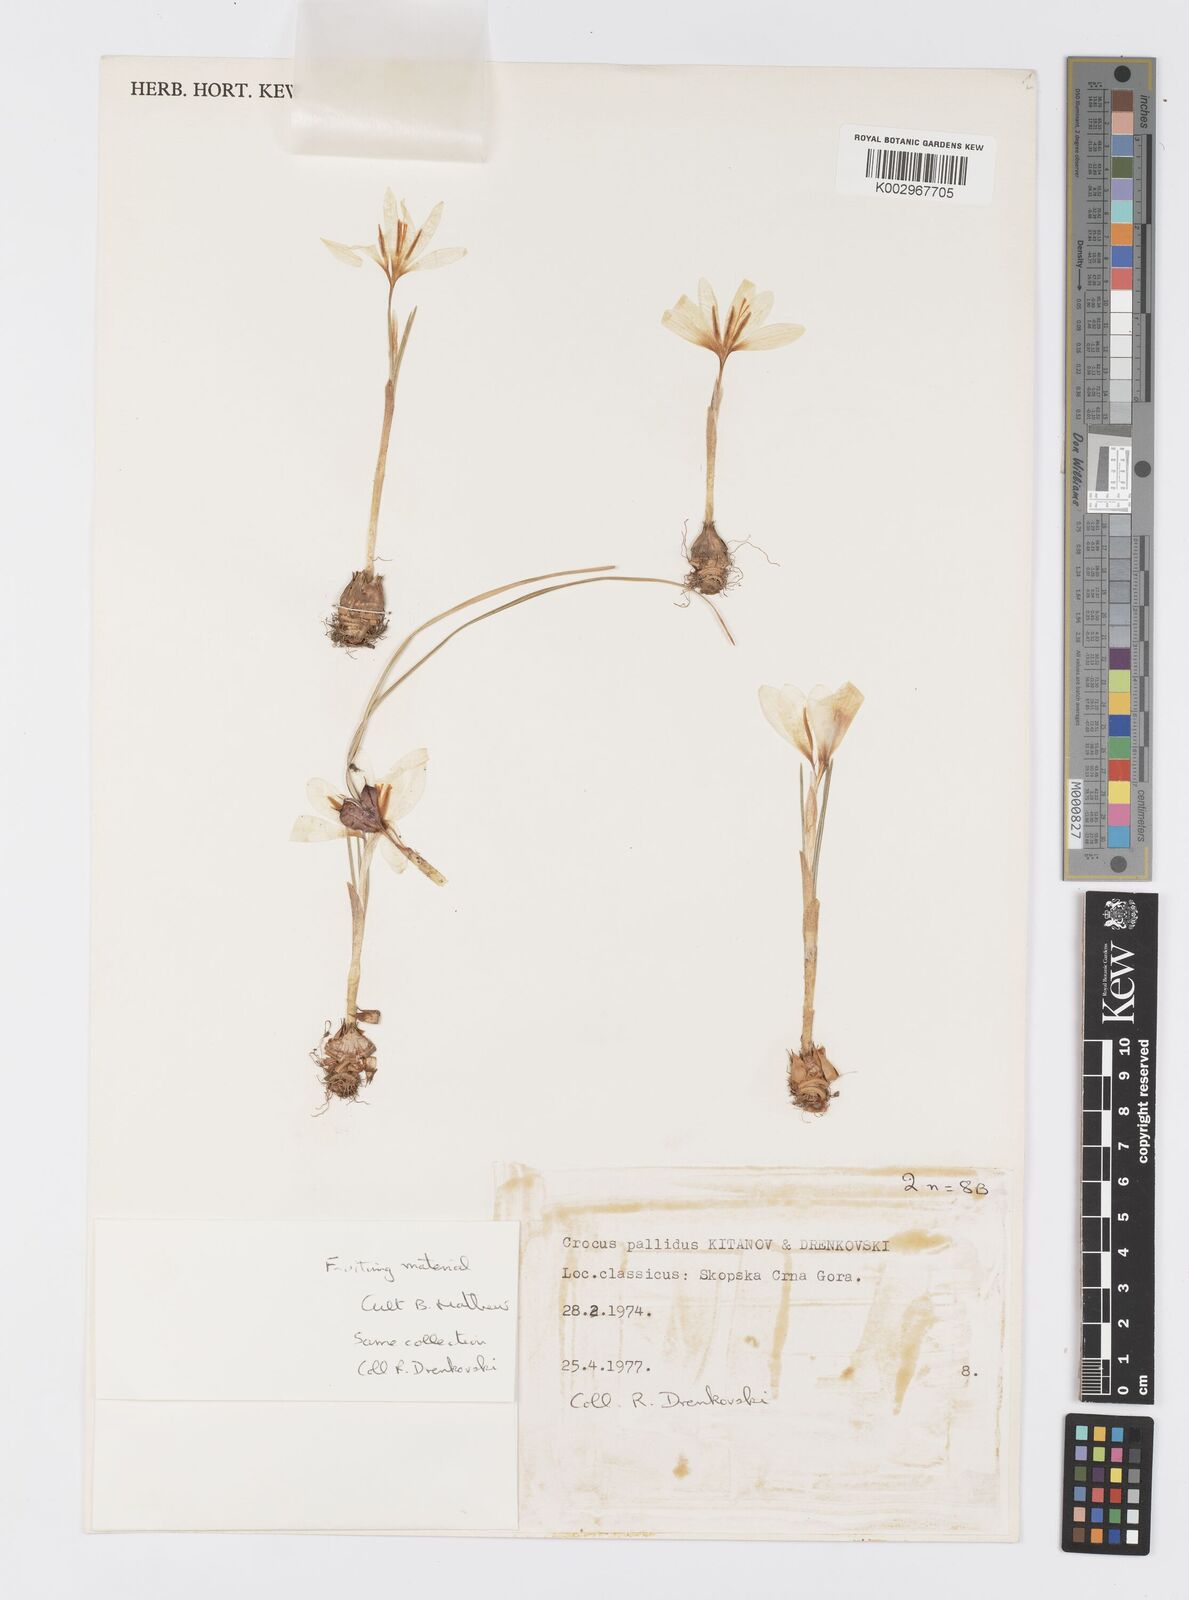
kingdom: Plantae
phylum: Tracheophyta
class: Liliopsida
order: Asparagales
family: Iridaceae
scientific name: Iridaceae
